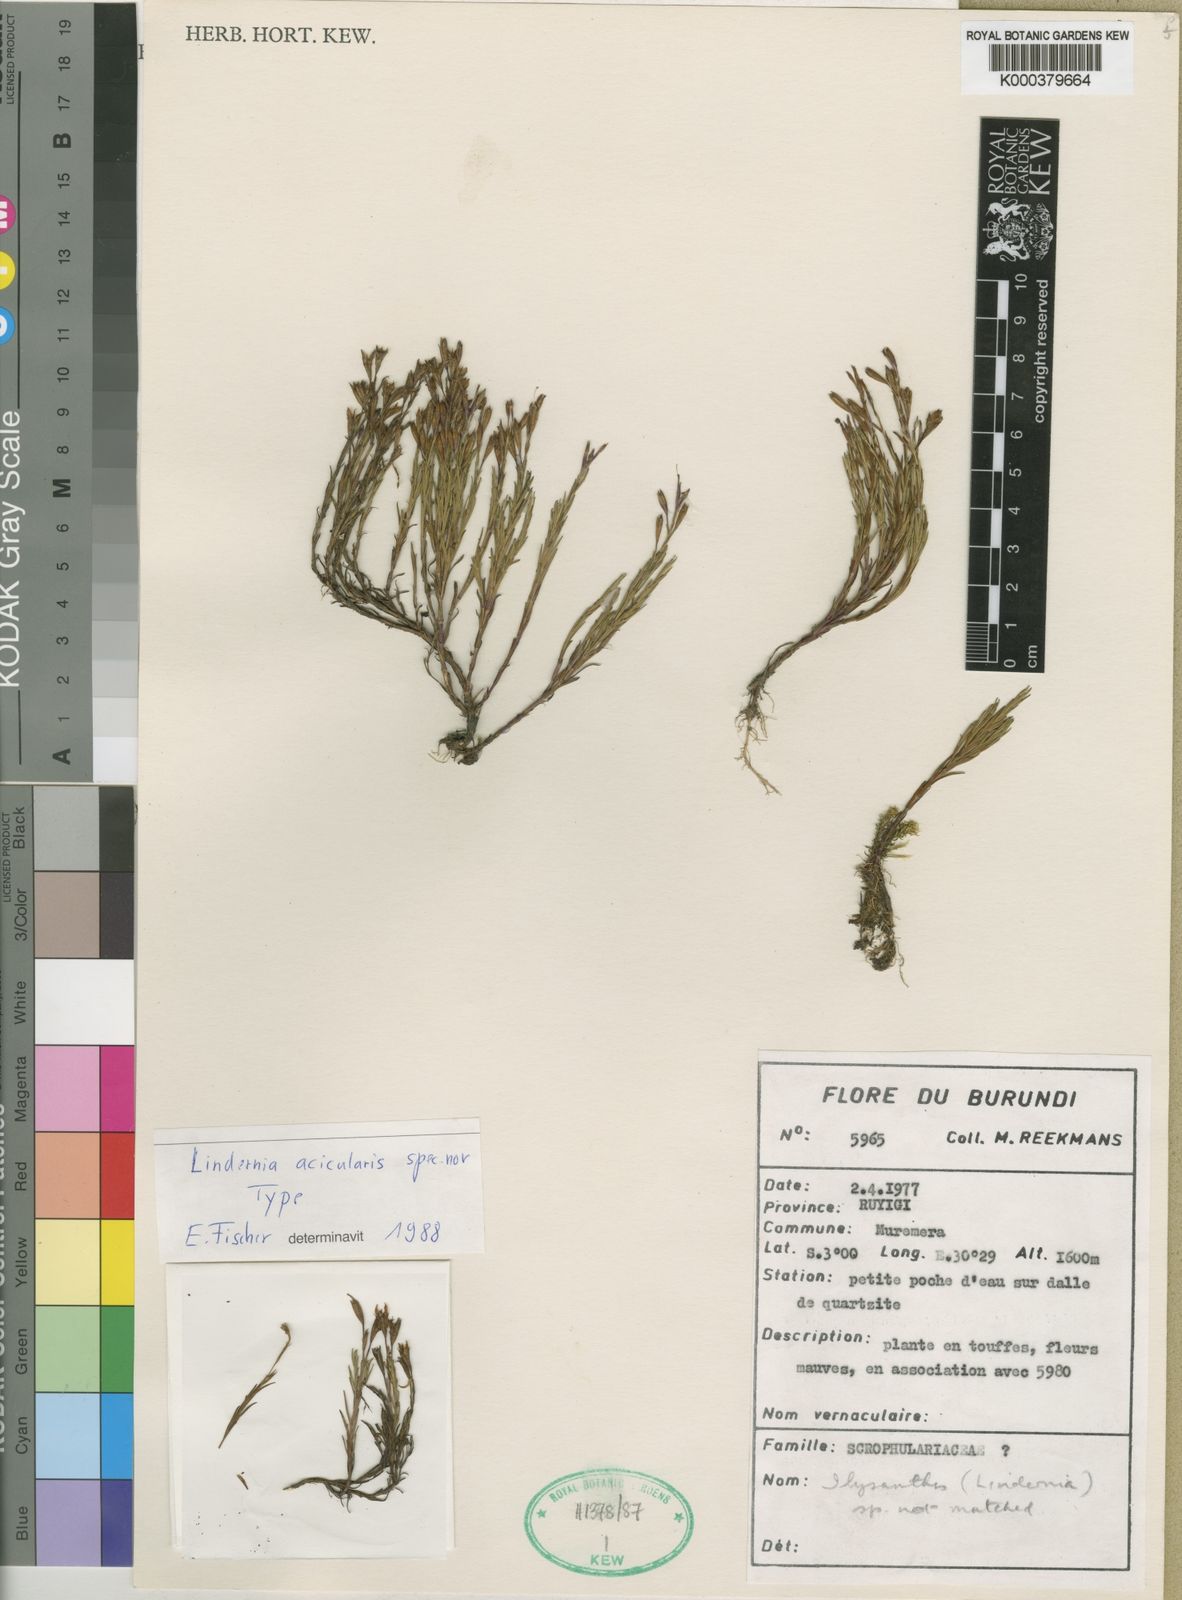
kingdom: Plantae
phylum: Tracheophyta
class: Magnoliopsida
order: Lamiales
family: Linderniaceae
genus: Craterostigma
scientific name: Craterostigma pusillum
